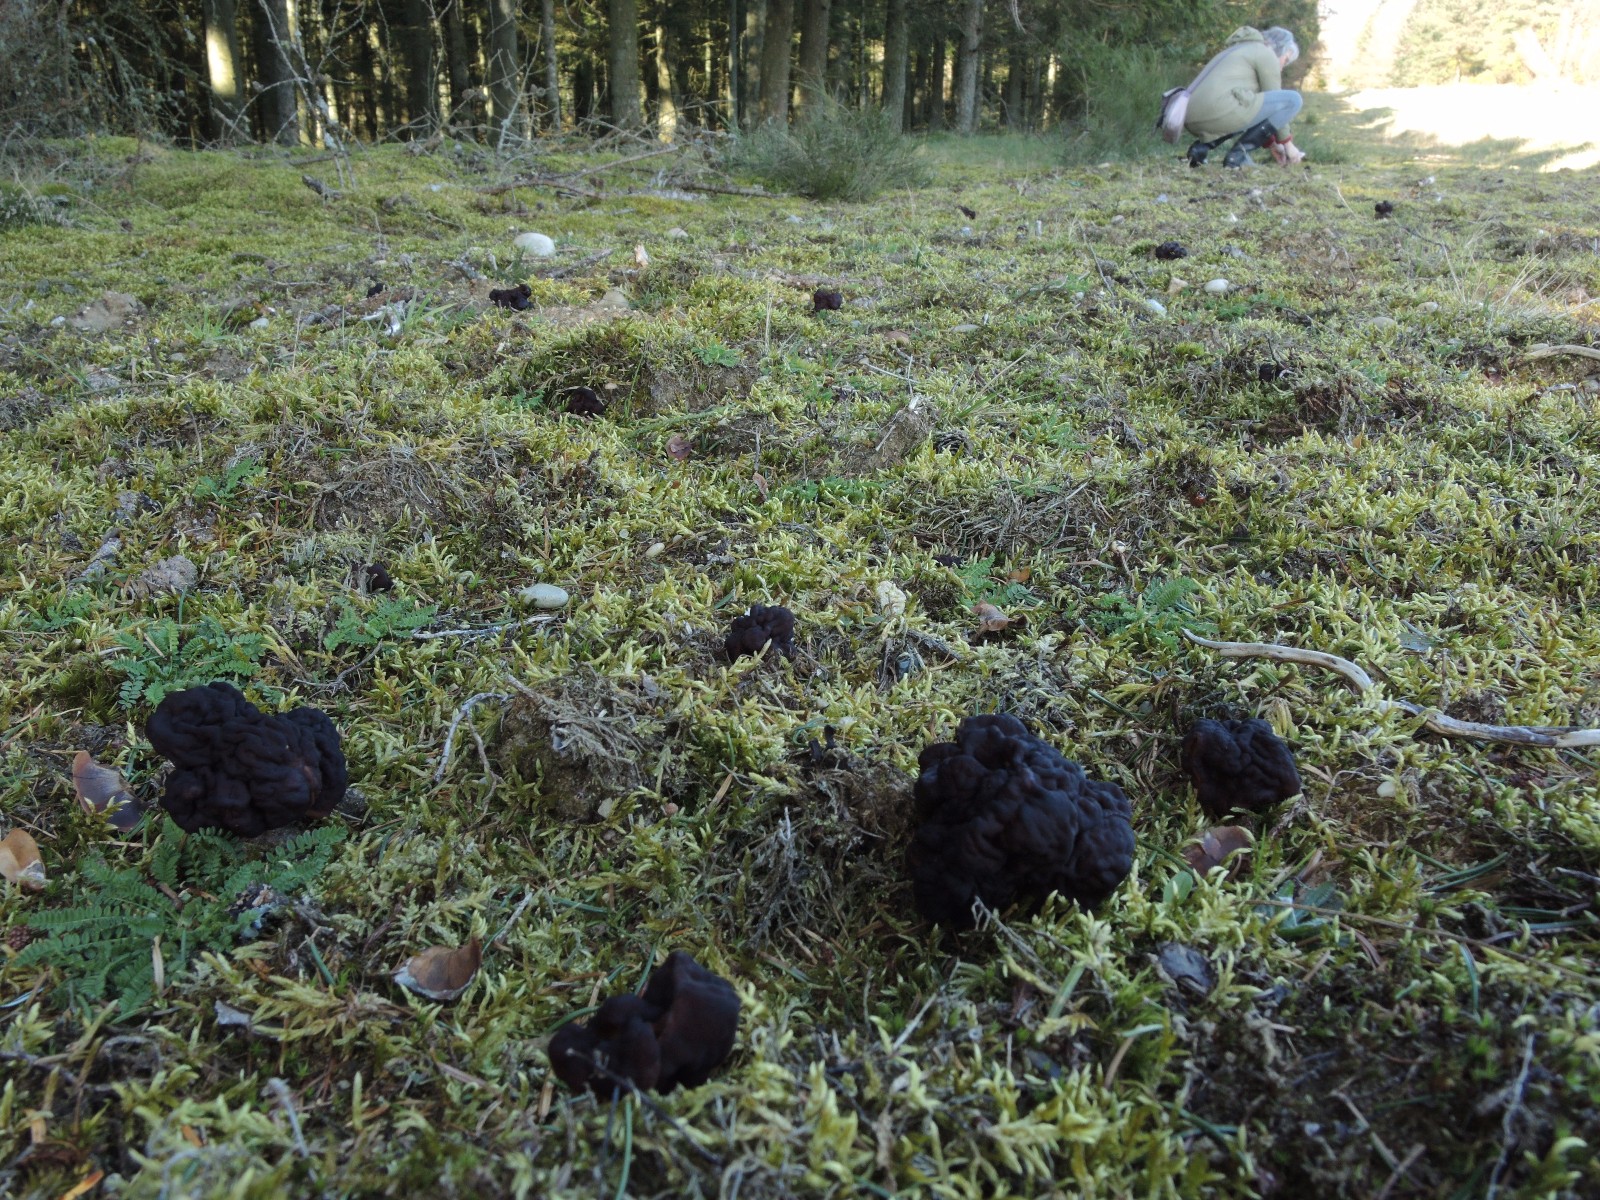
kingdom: Fungi
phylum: Ascomycota
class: Pezizomycetes
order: Pezizales
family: Discinaceae
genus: Gyromitra
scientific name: Gyromitra esculenta
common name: ægte stenmorkel
